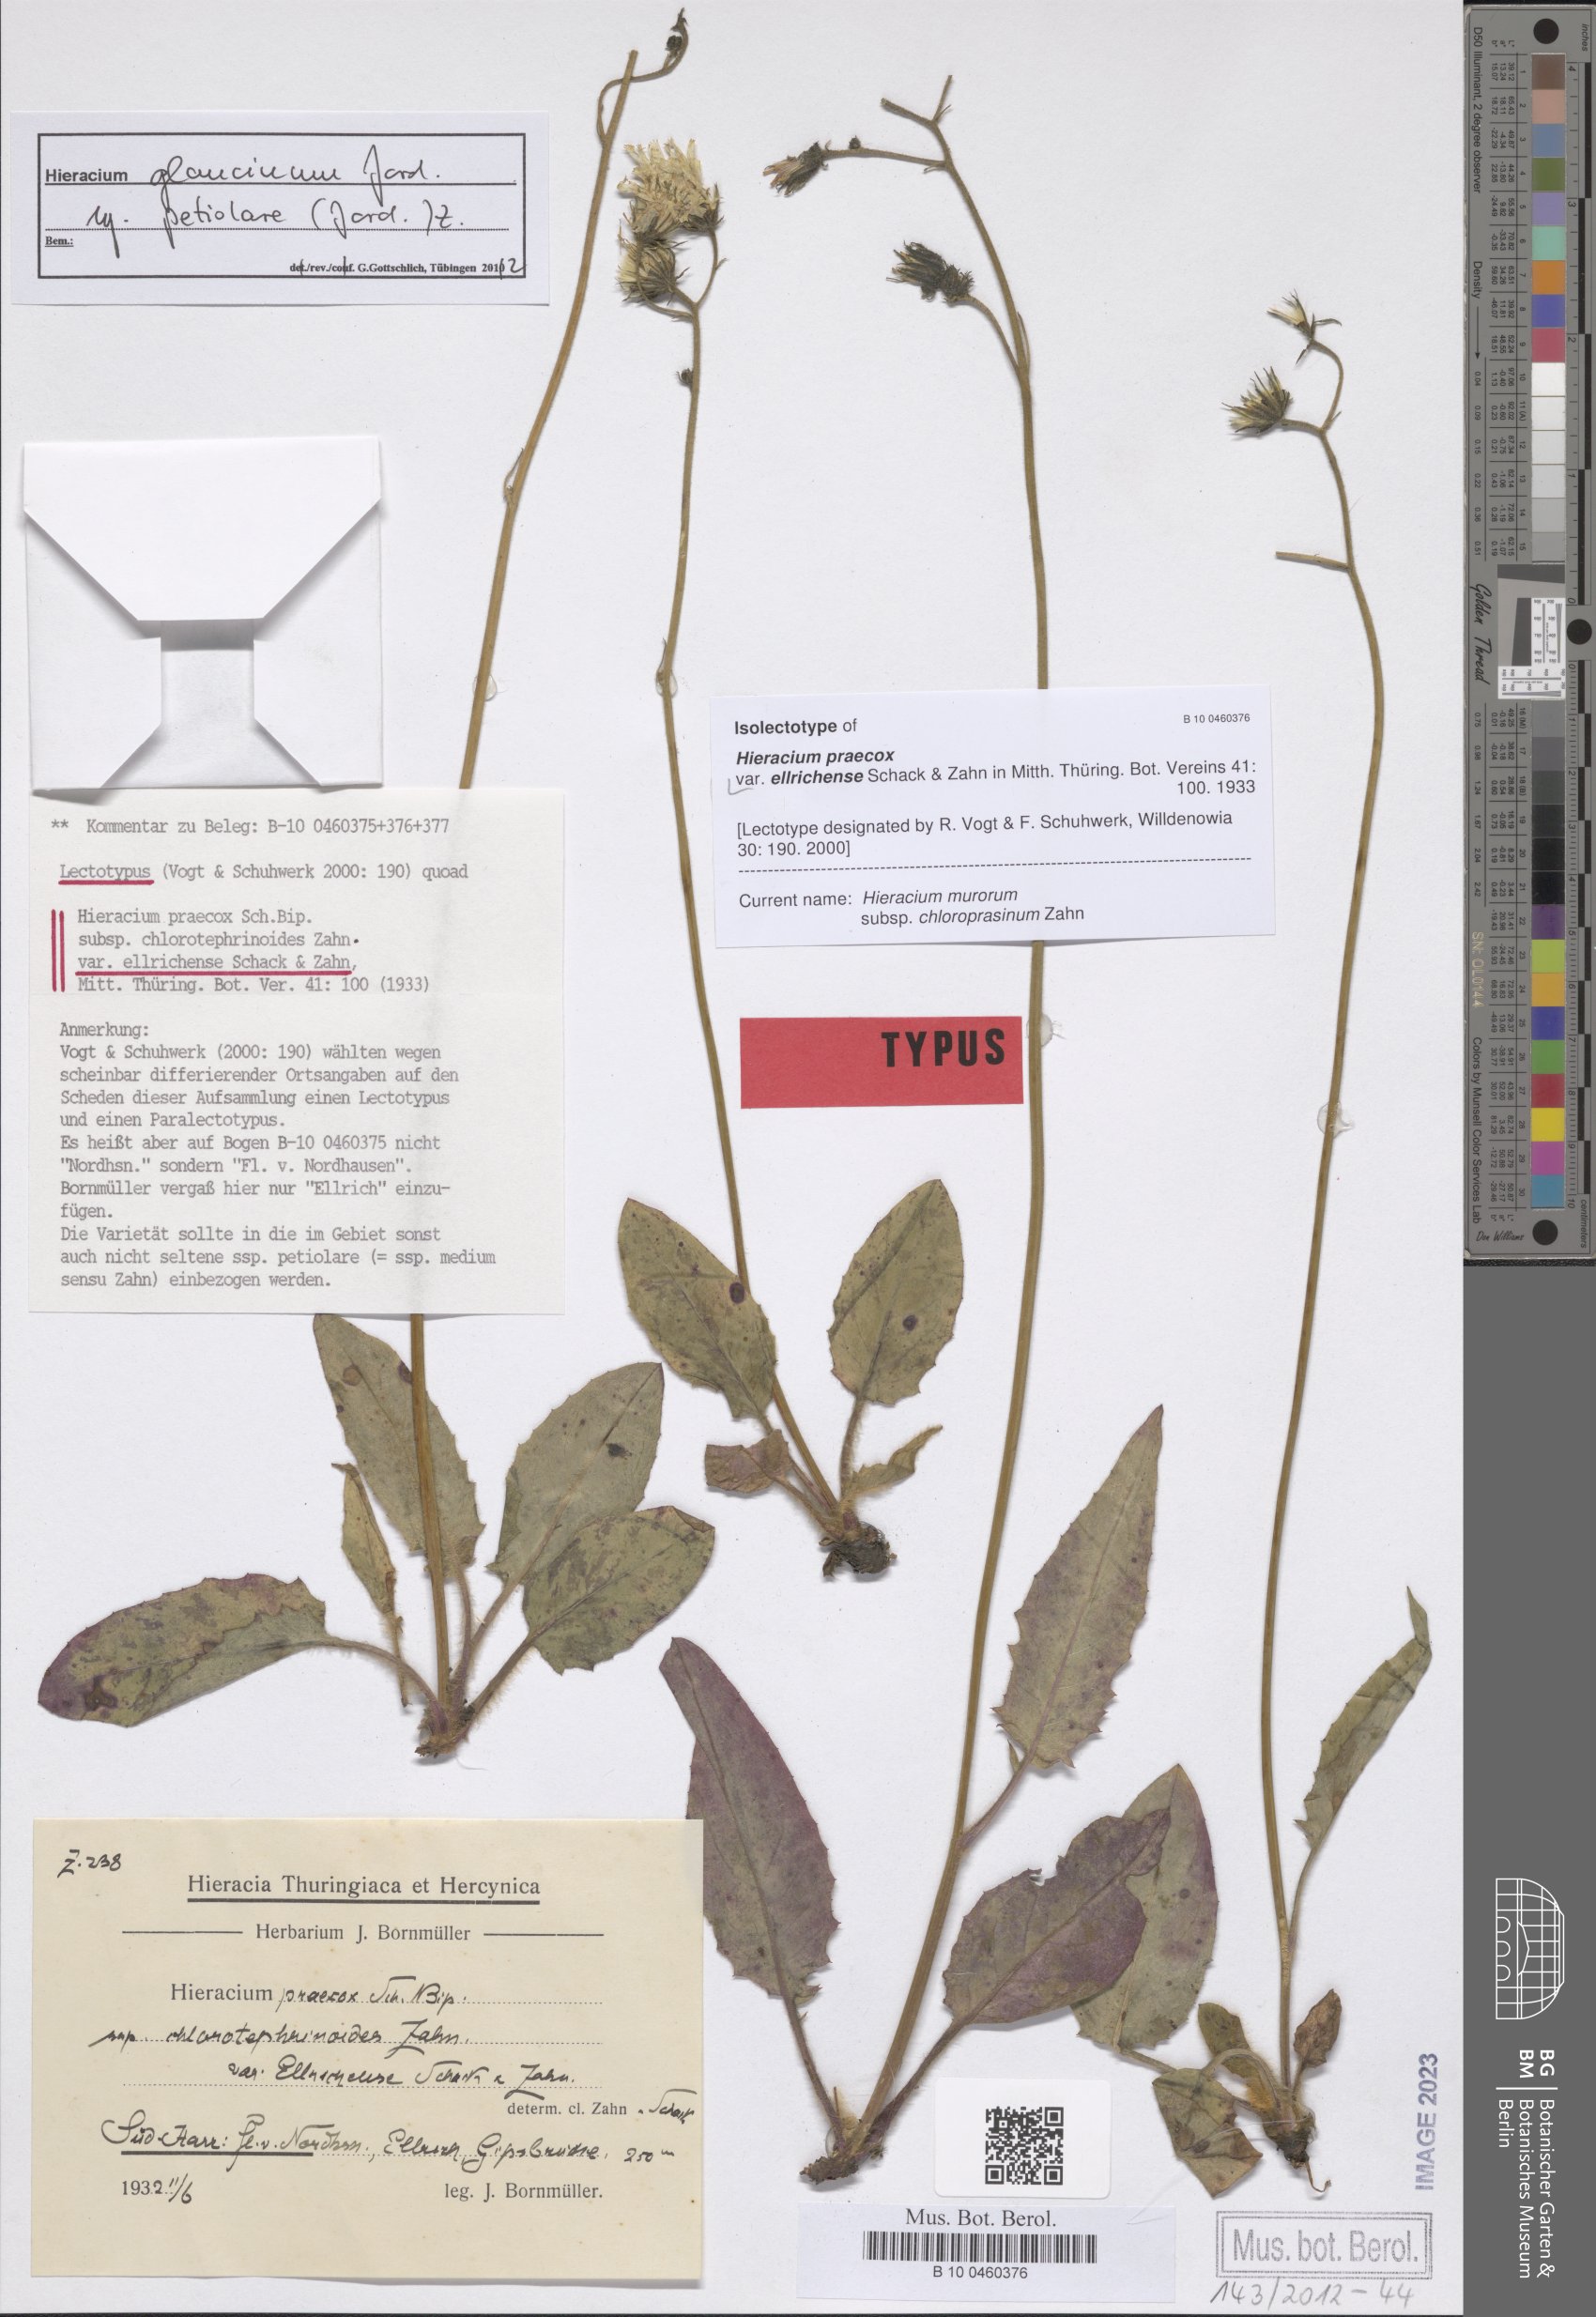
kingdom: Plantae
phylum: Tracheophyta
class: Magnoliopsida
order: Asterales
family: Asteraceae
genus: Hieracium
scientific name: Hieracium praecox
